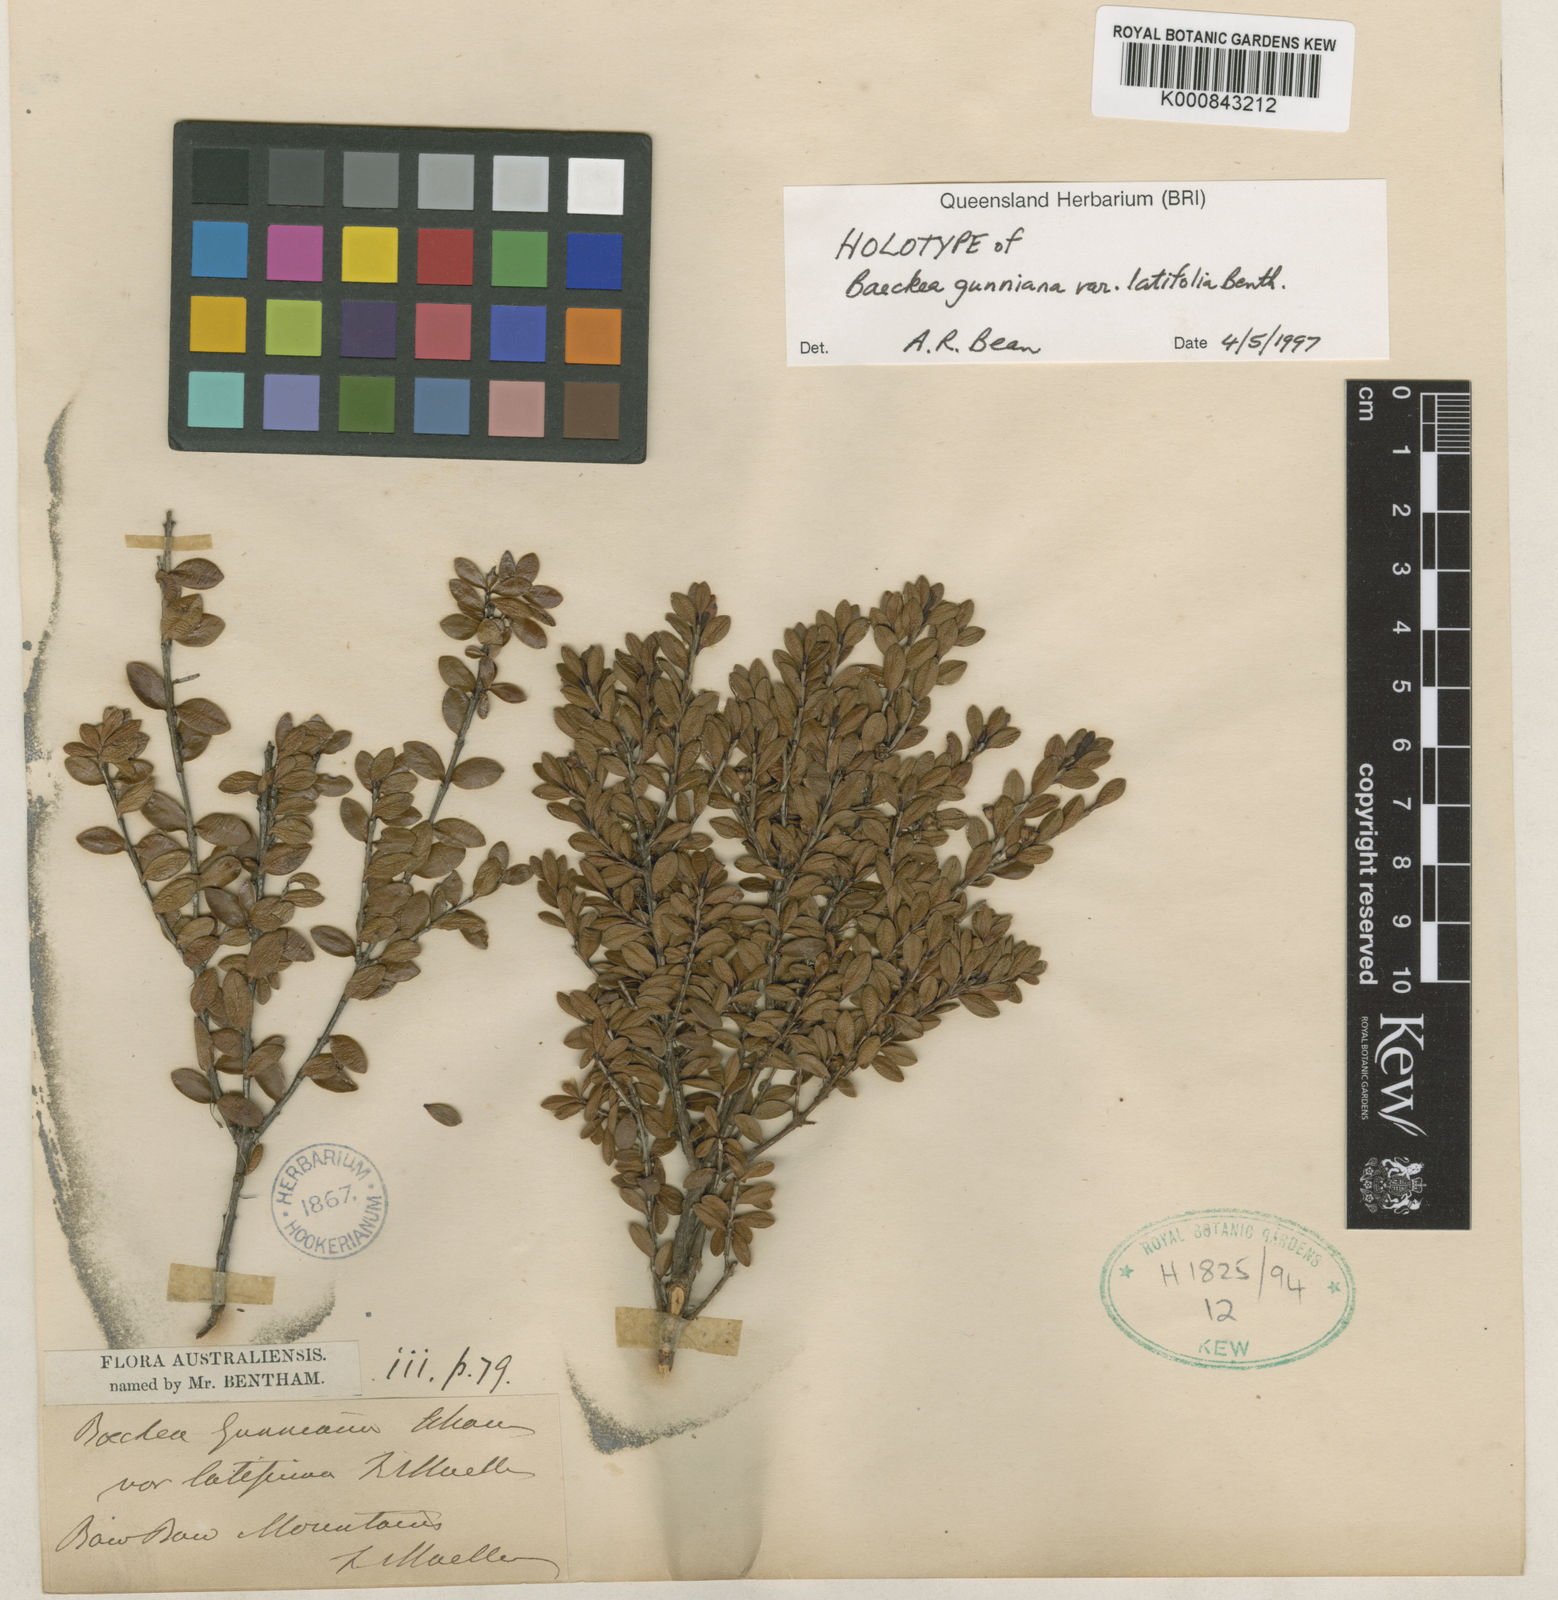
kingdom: Plantae
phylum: Tracheophyta
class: Magnoliopsida
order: Myrtales
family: Myrtaceae
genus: Baeckea
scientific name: Baeckea gunniana
